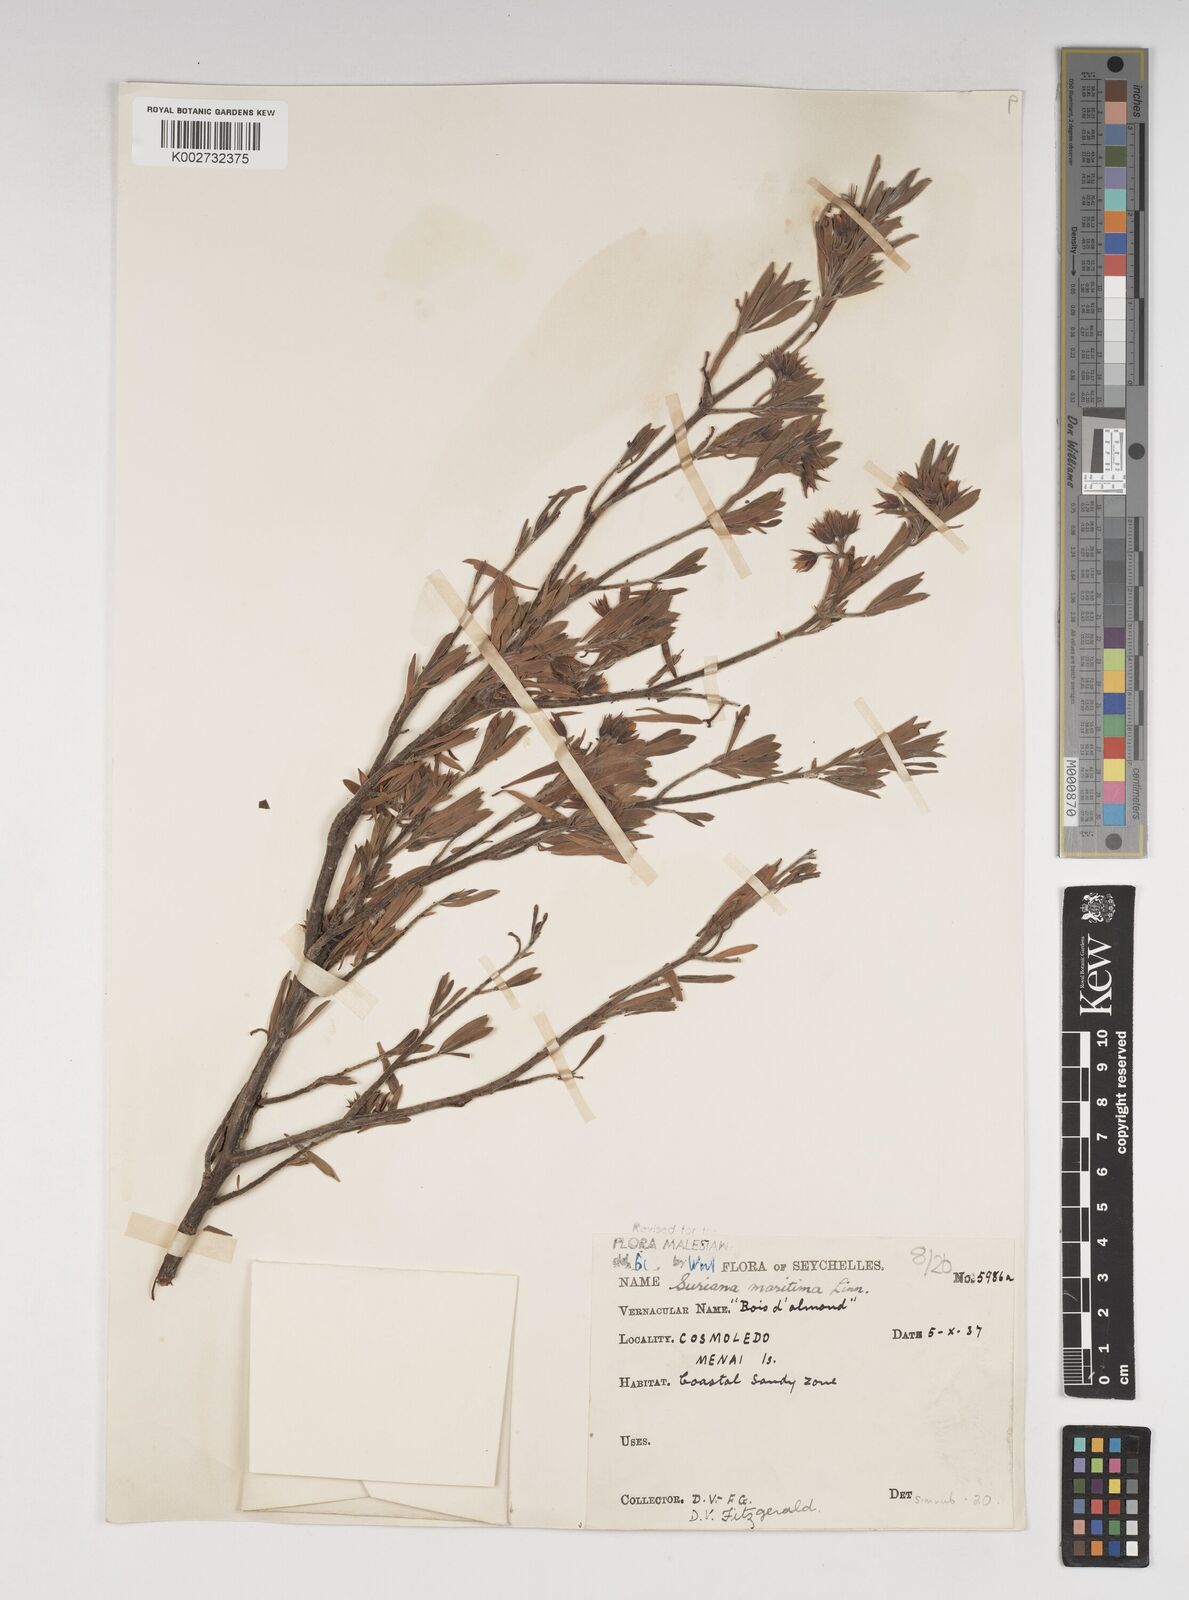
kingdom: Plantae
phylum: Tracheophyta
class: Magnoliopsida
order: Fabales
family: Surianaceae
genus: Suriana
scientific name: Suriana maritima
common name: Bay-cedar
